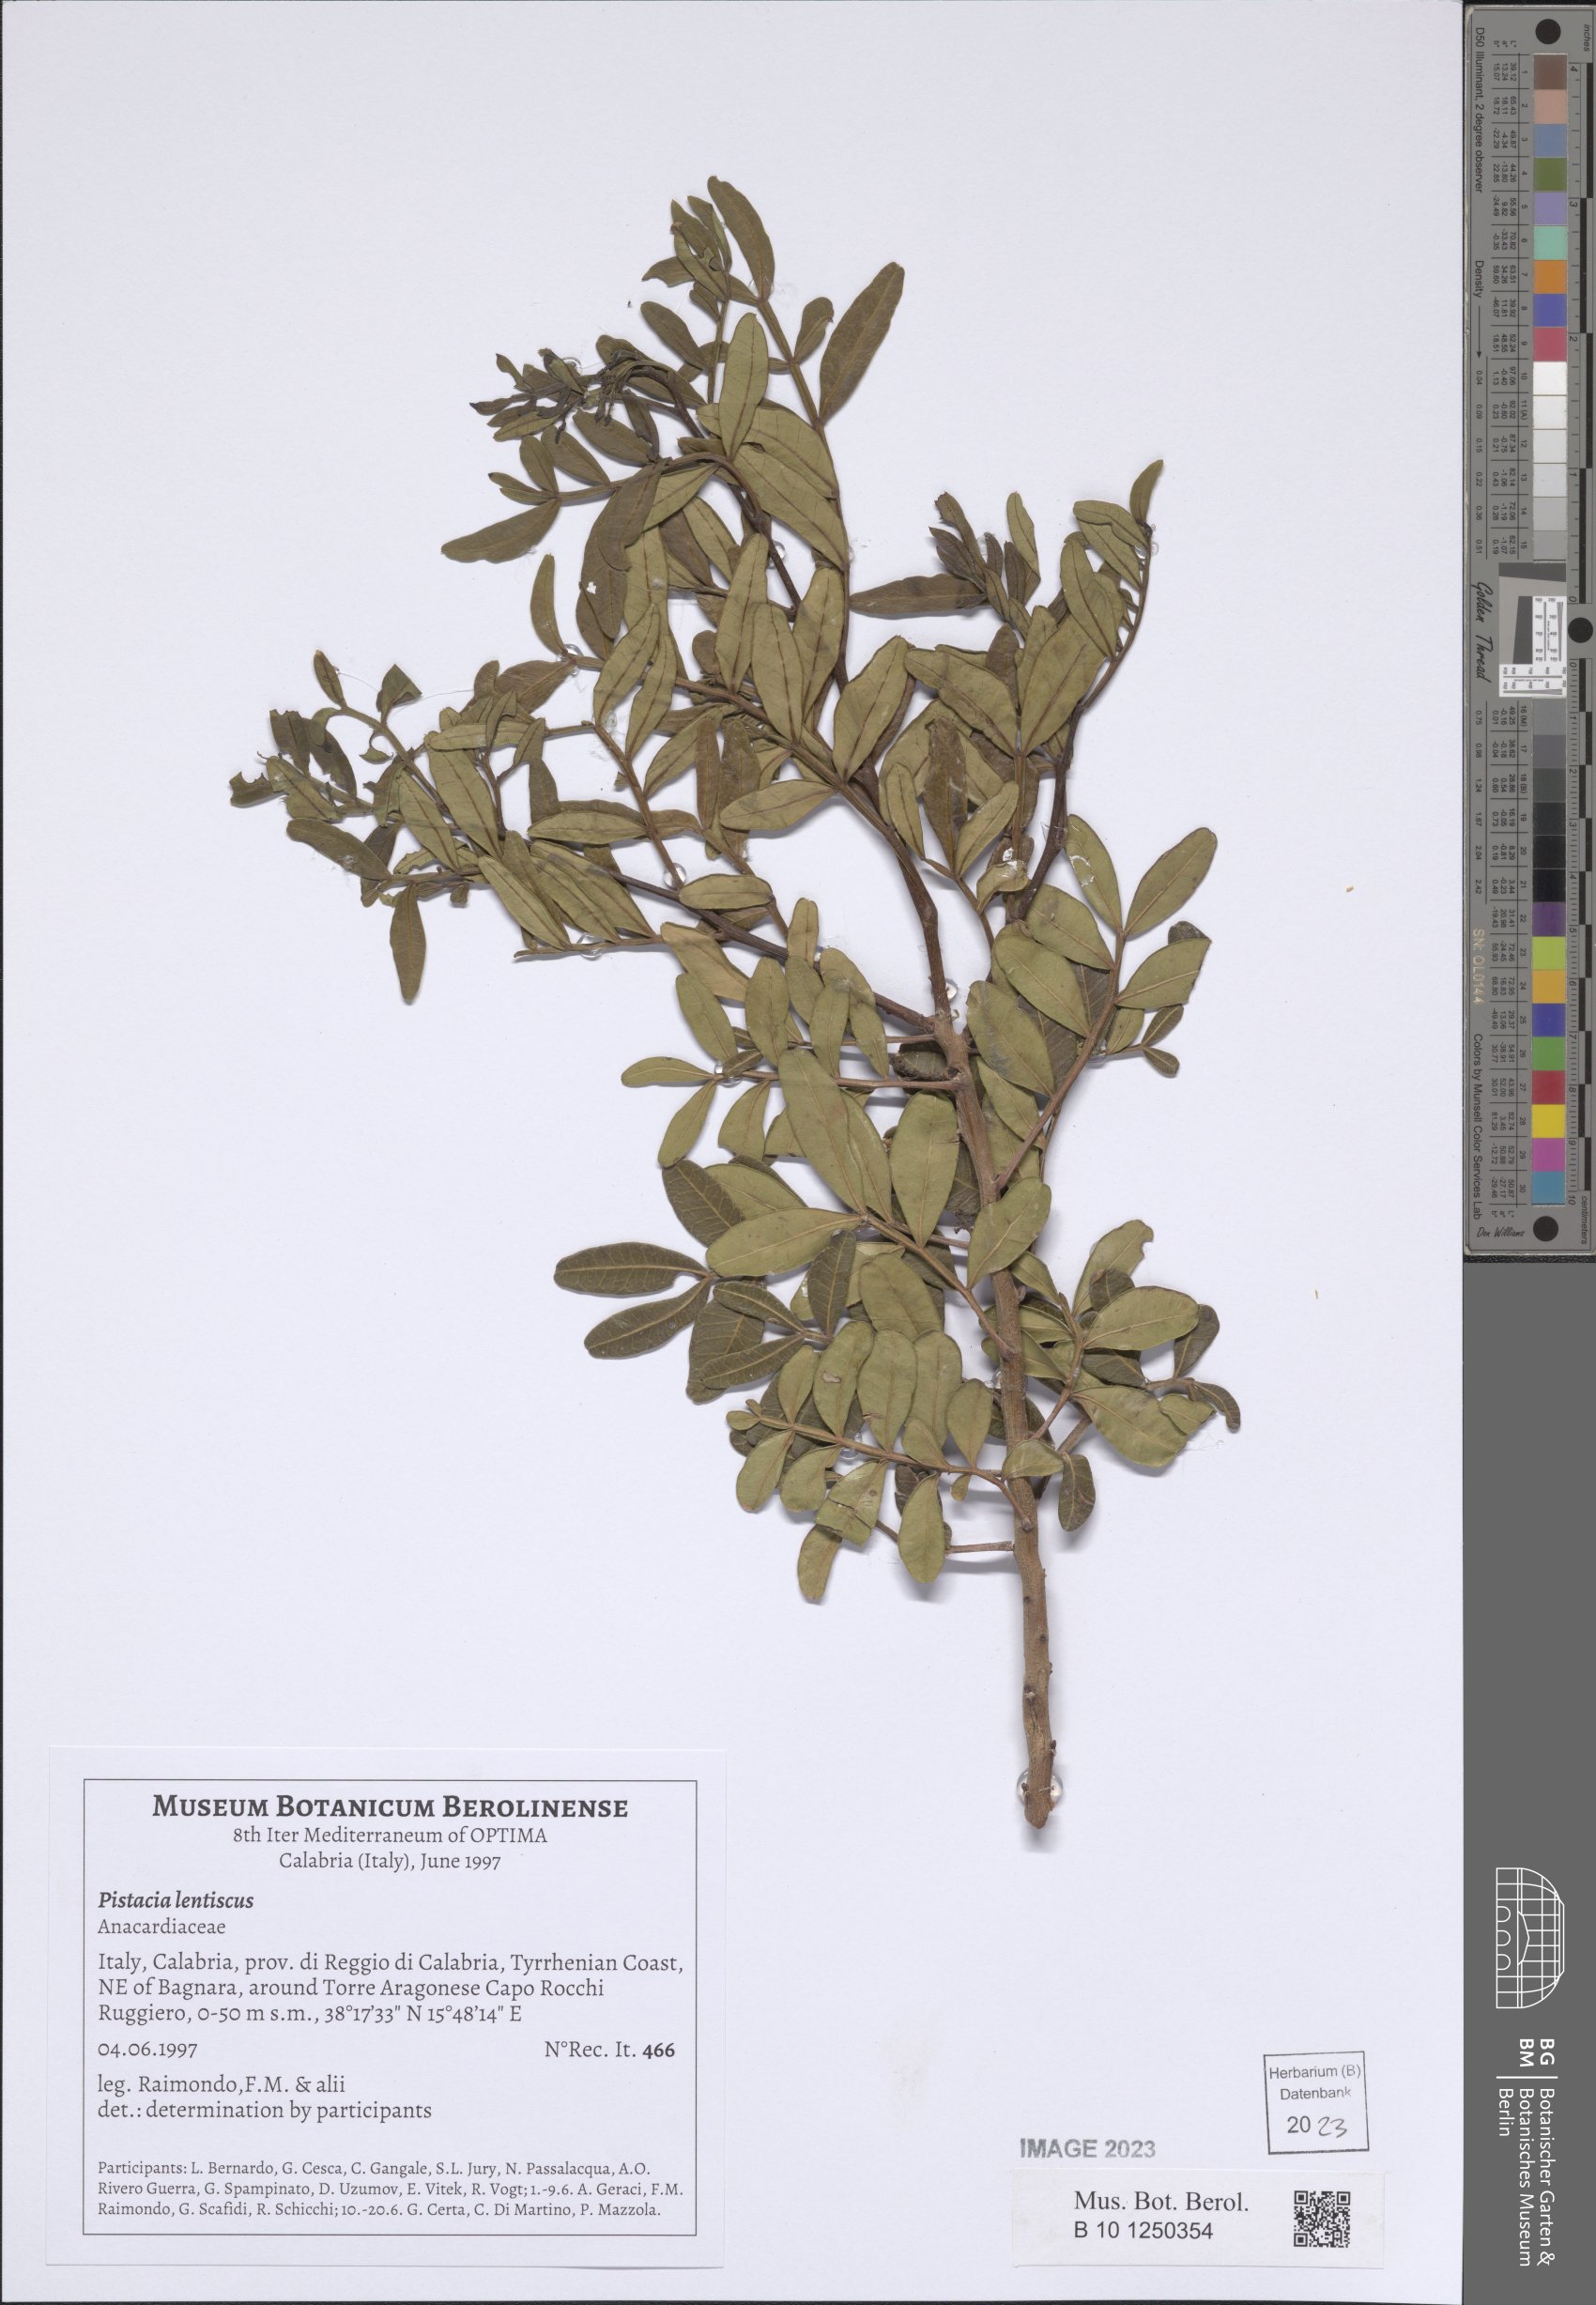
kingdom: Plantae
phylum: Tracheophyta
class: Magnoliopsida
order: Sapindales
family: Anacardiaceae
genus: Pistacia
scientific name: Pistacia lentiscus
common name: Lentisk
